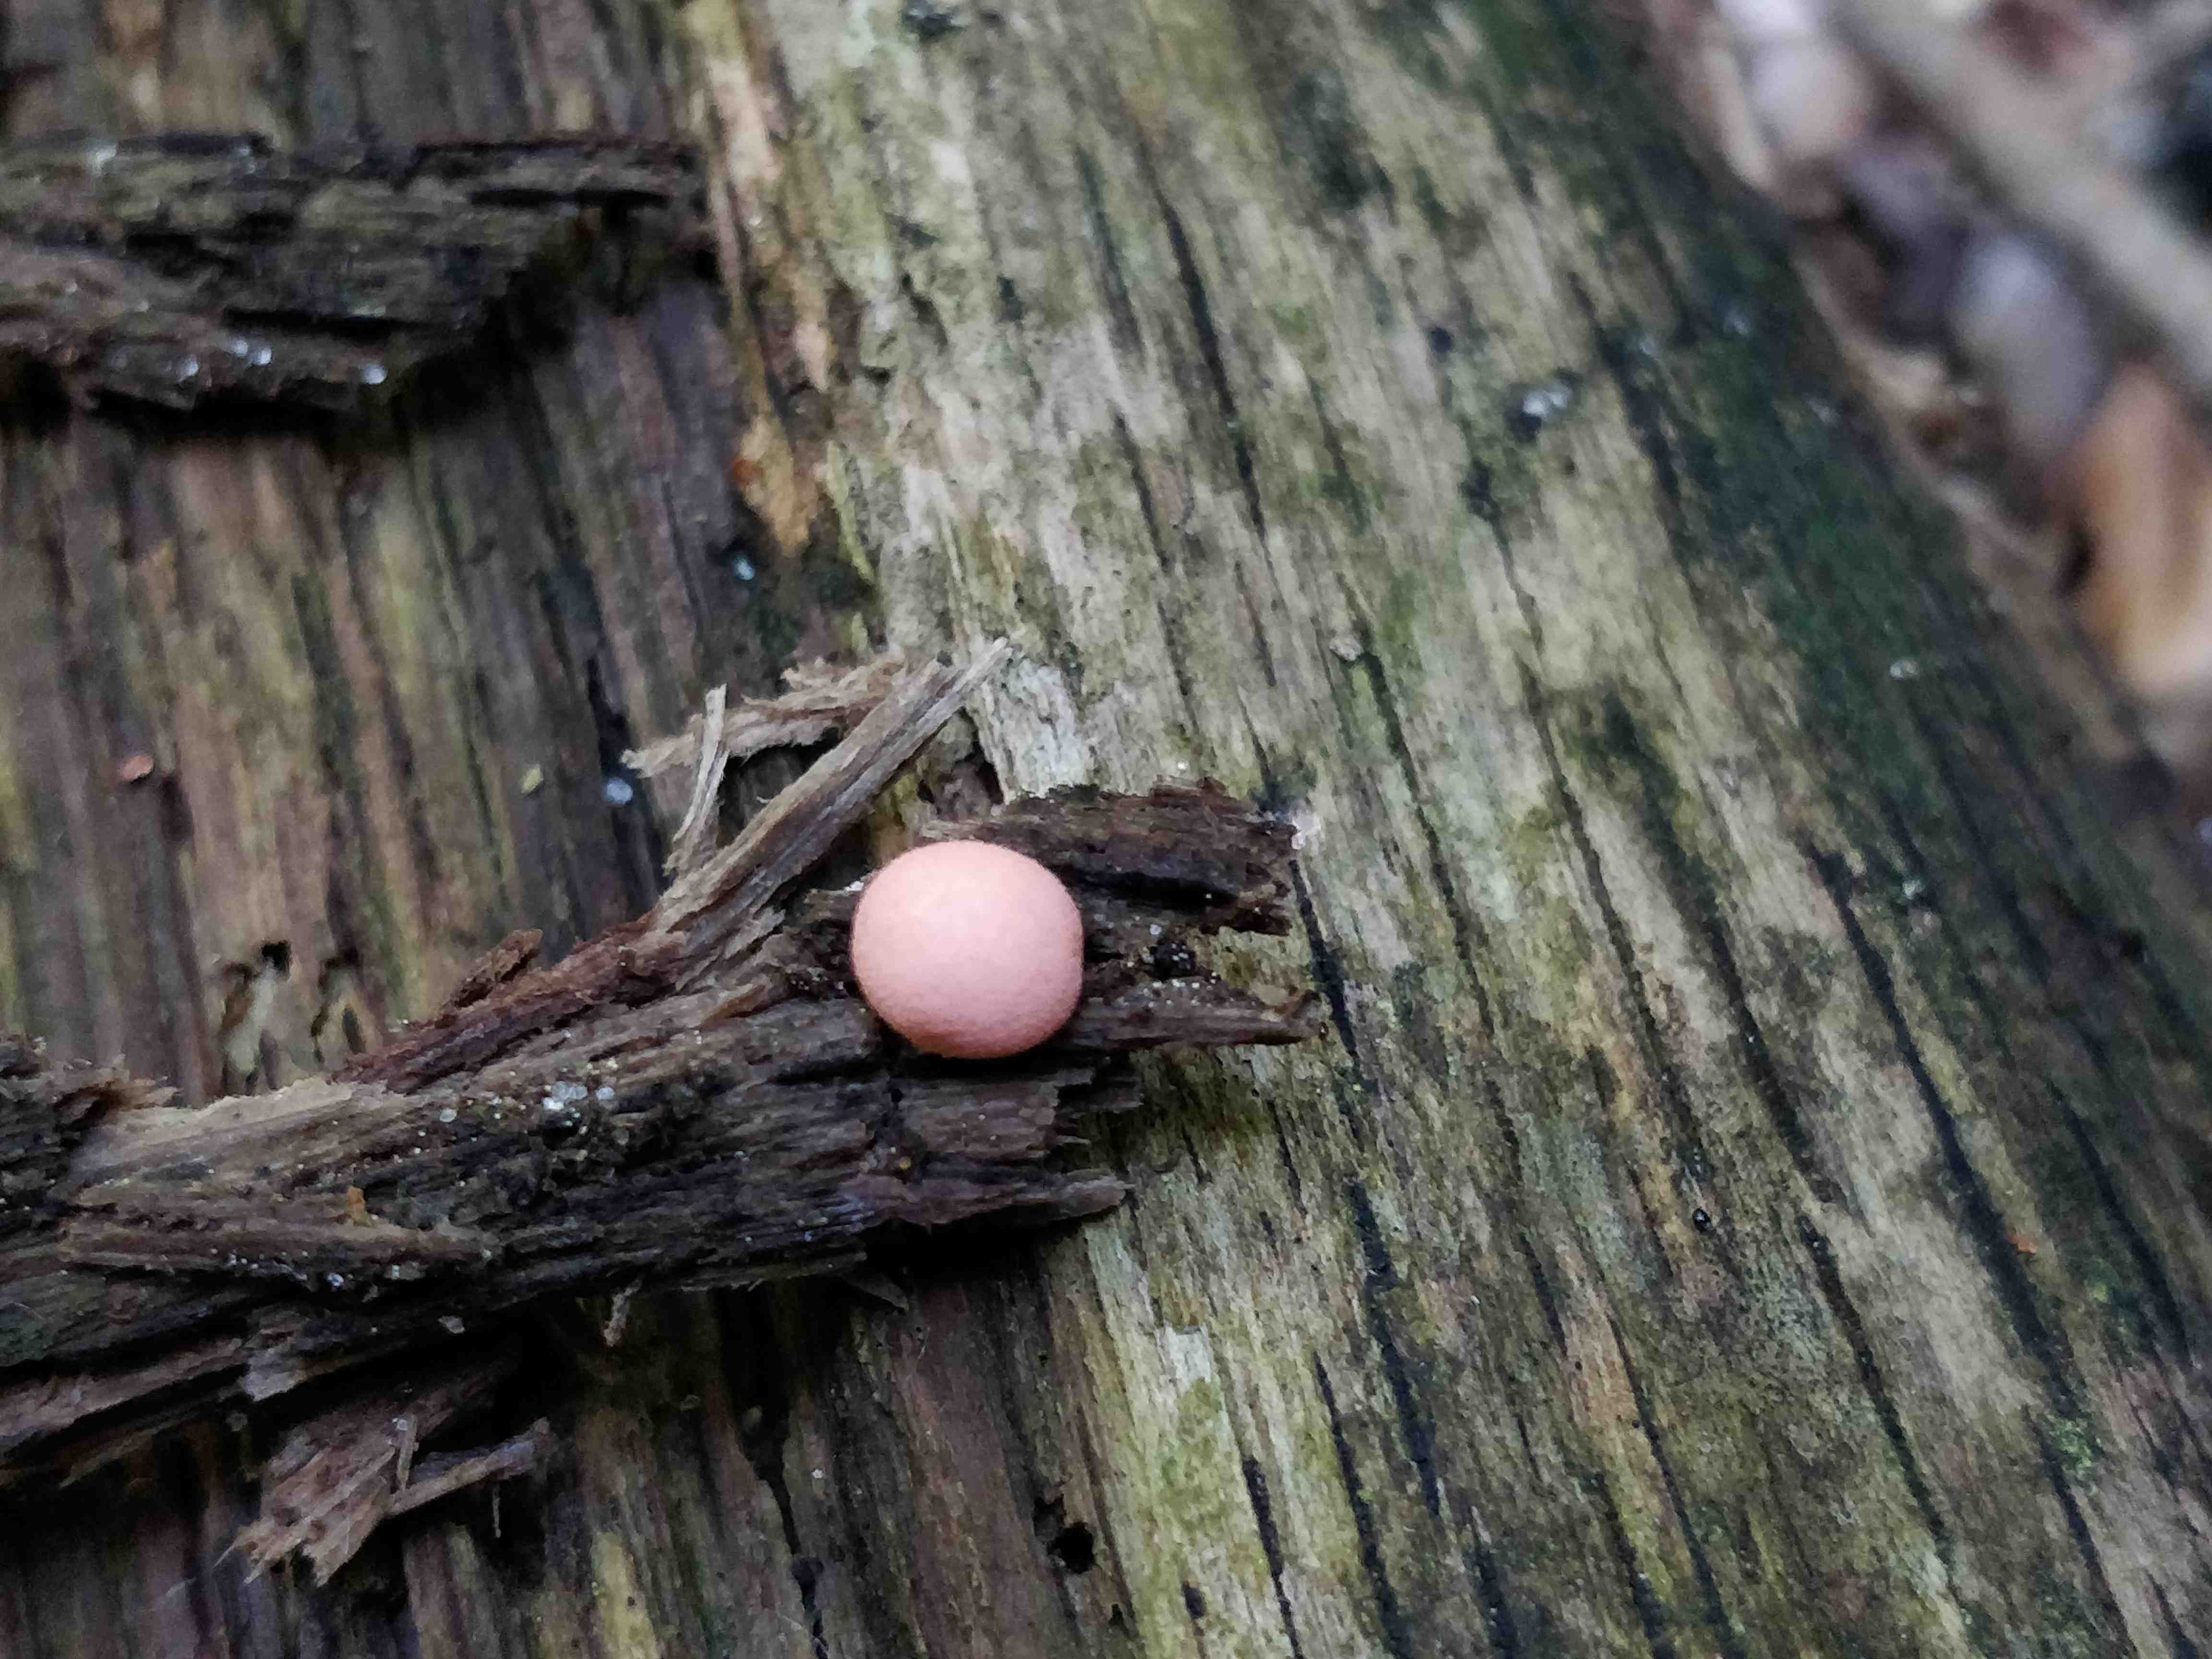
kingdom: Protozoa
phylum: Mycetozoa
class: Myxomycetes
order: Cribrariales
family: Tubiferaceae
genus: Lycogala
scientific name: Lycogala epidendrum
